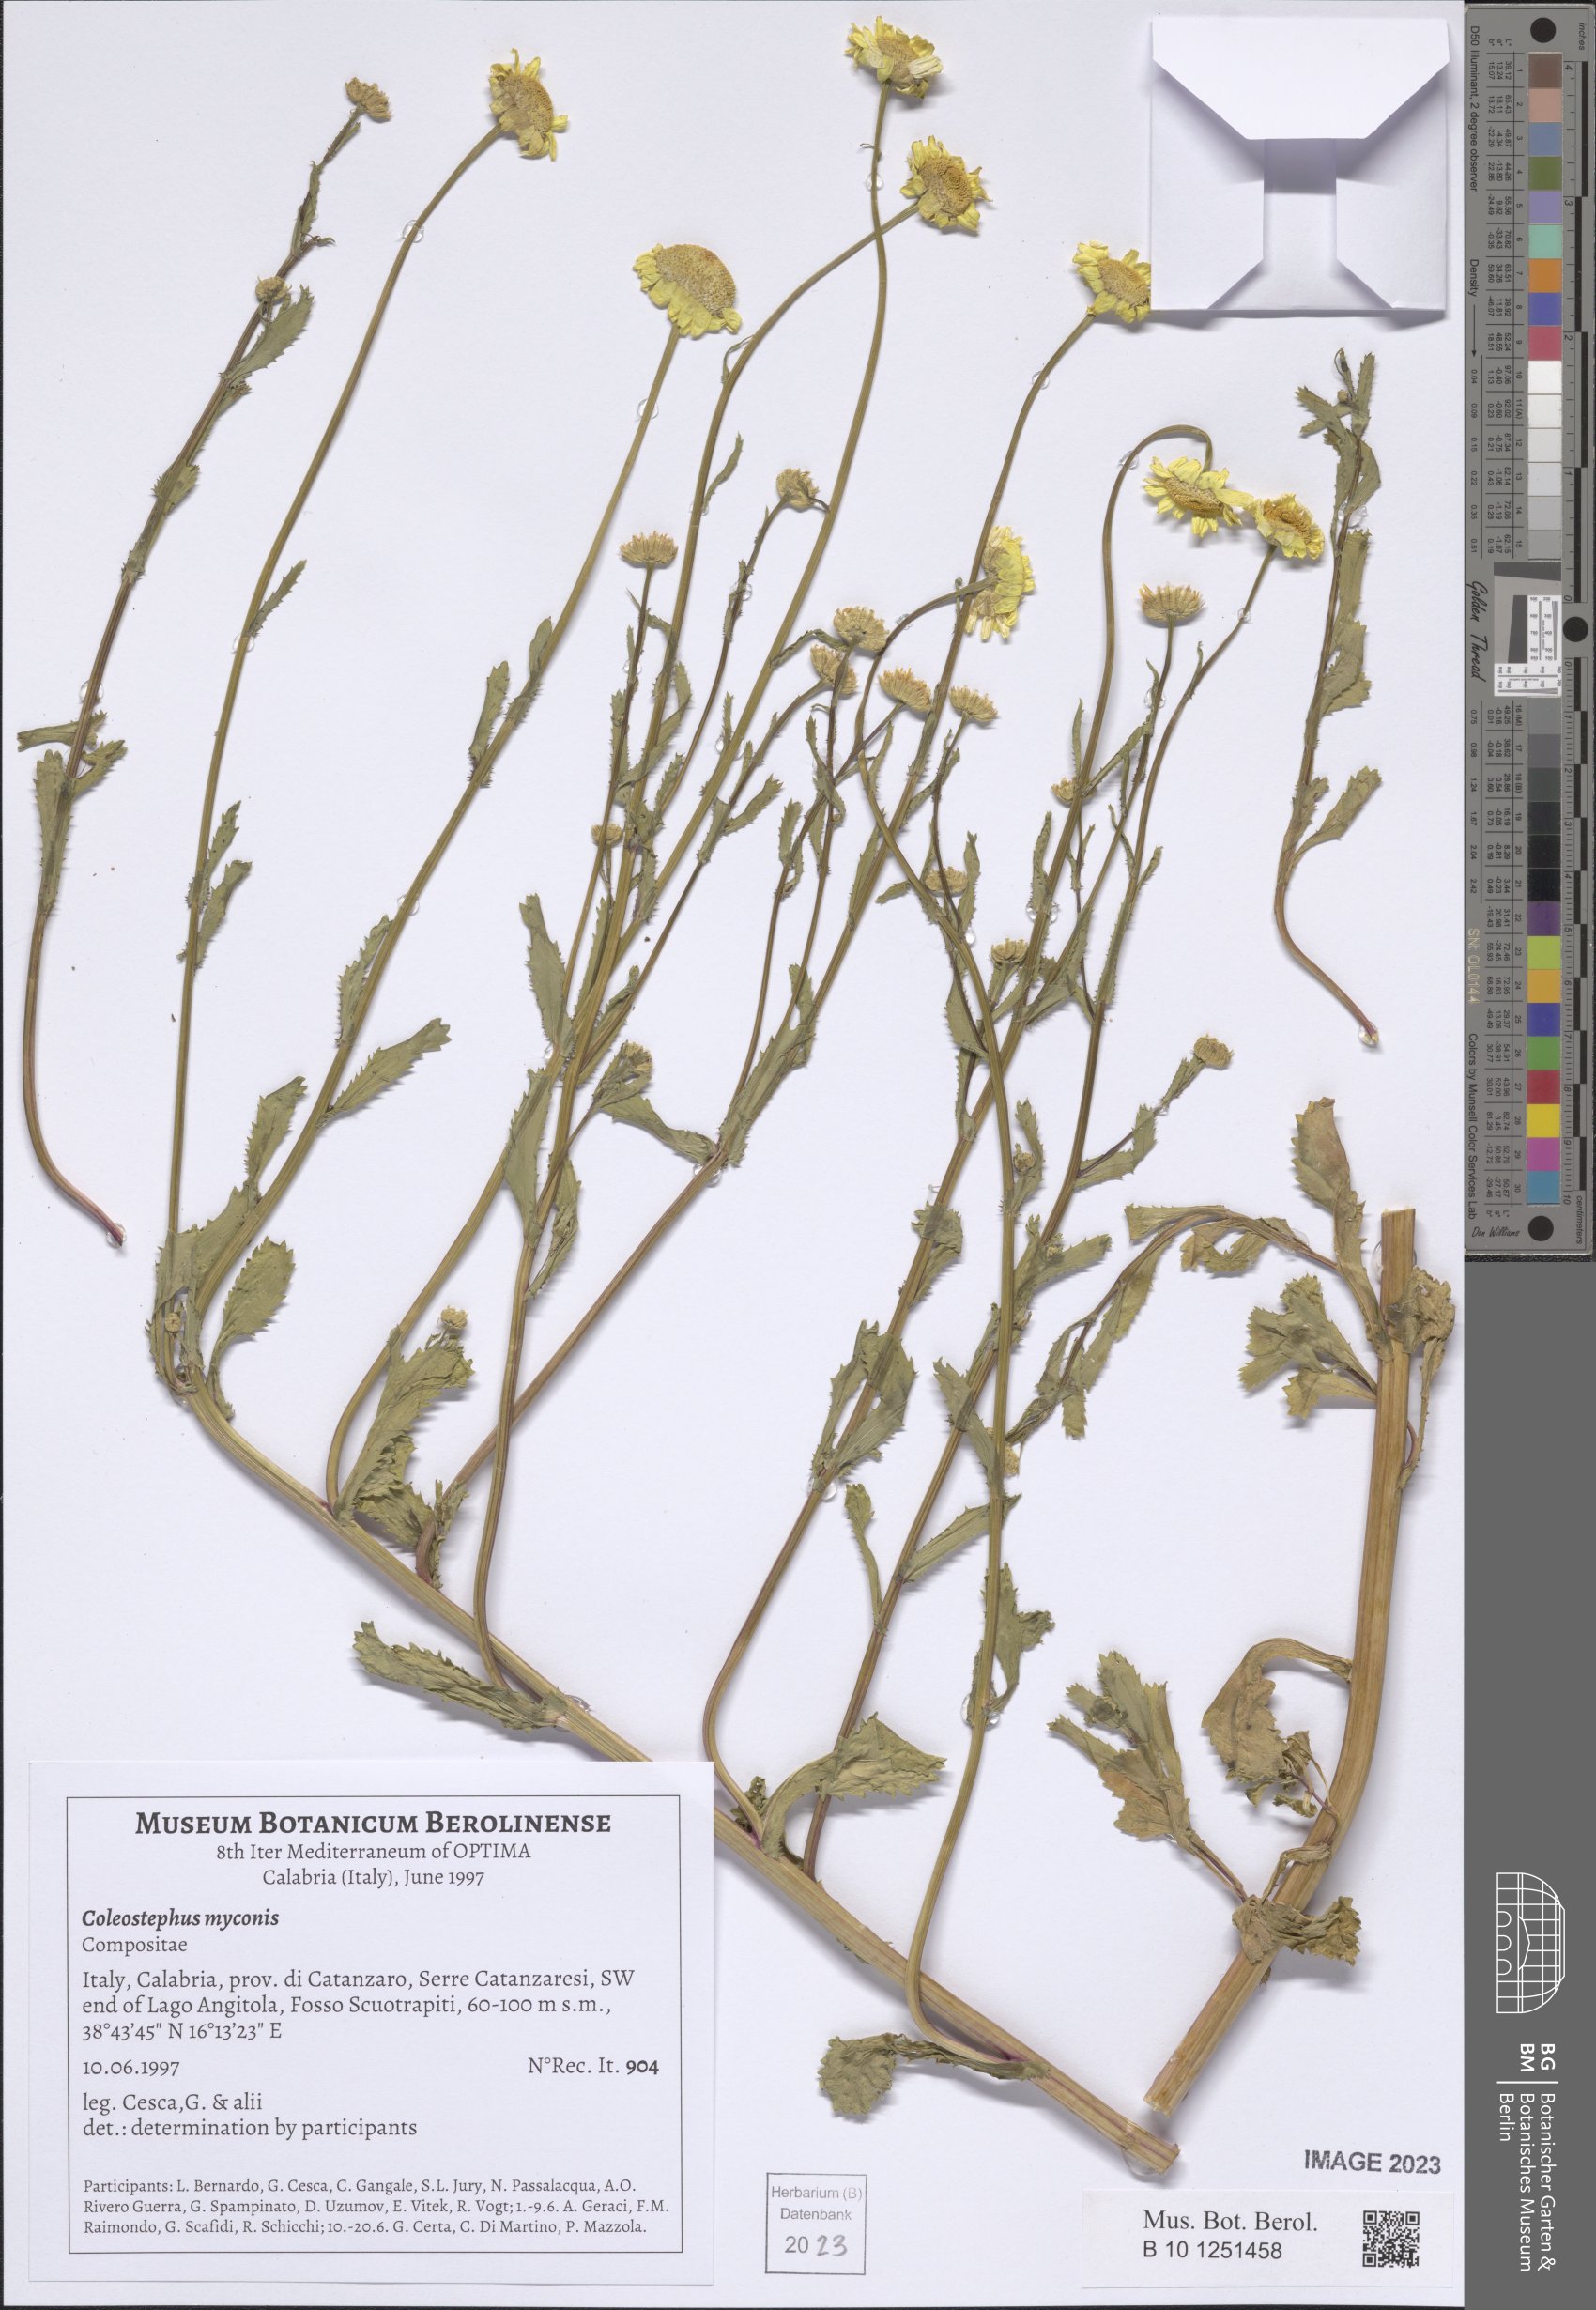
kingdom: Plantae
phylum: Tracheophyta
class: Magnoliopsida
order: Asterales
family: Asteraceae
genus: Coleostephus
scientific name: Coleostephus myconis
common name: Mediterranean marigold
